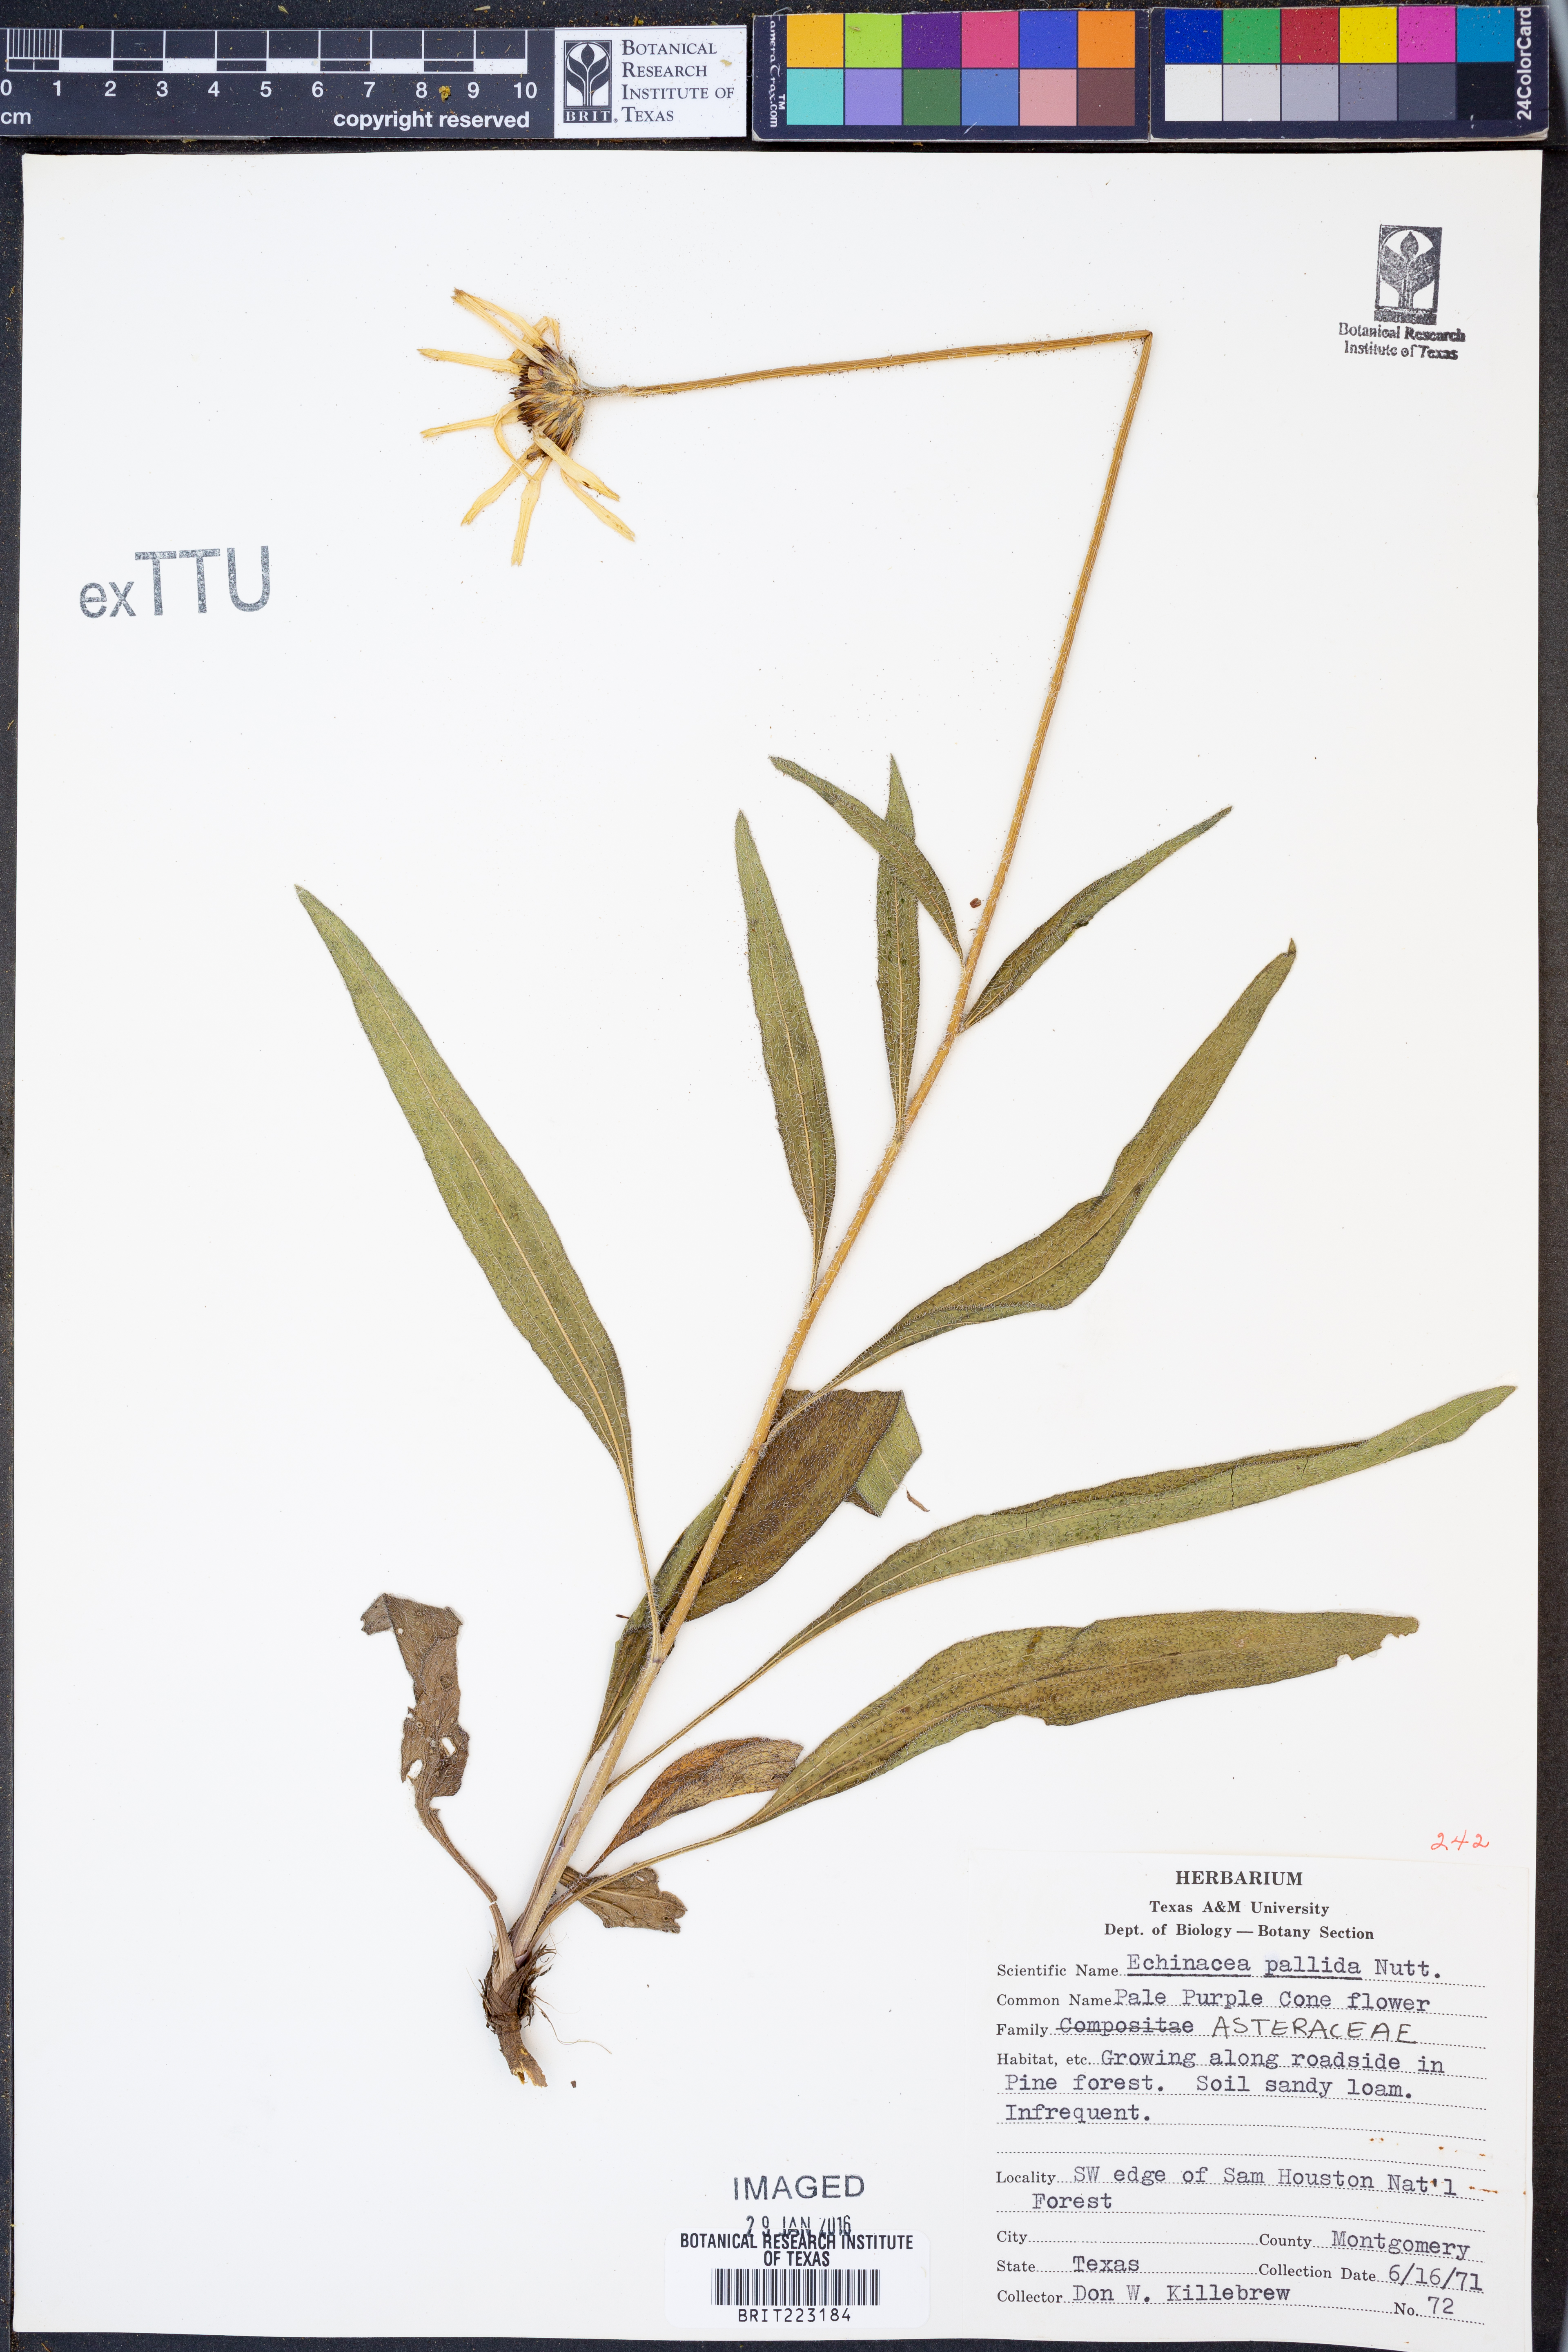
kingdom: Plantae
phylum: Tracheophyta
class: Magnoliopsida
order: Asterales
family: Asteraceae
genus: Echinacea
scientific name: Echinacea pallida
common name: Pale echinacea
